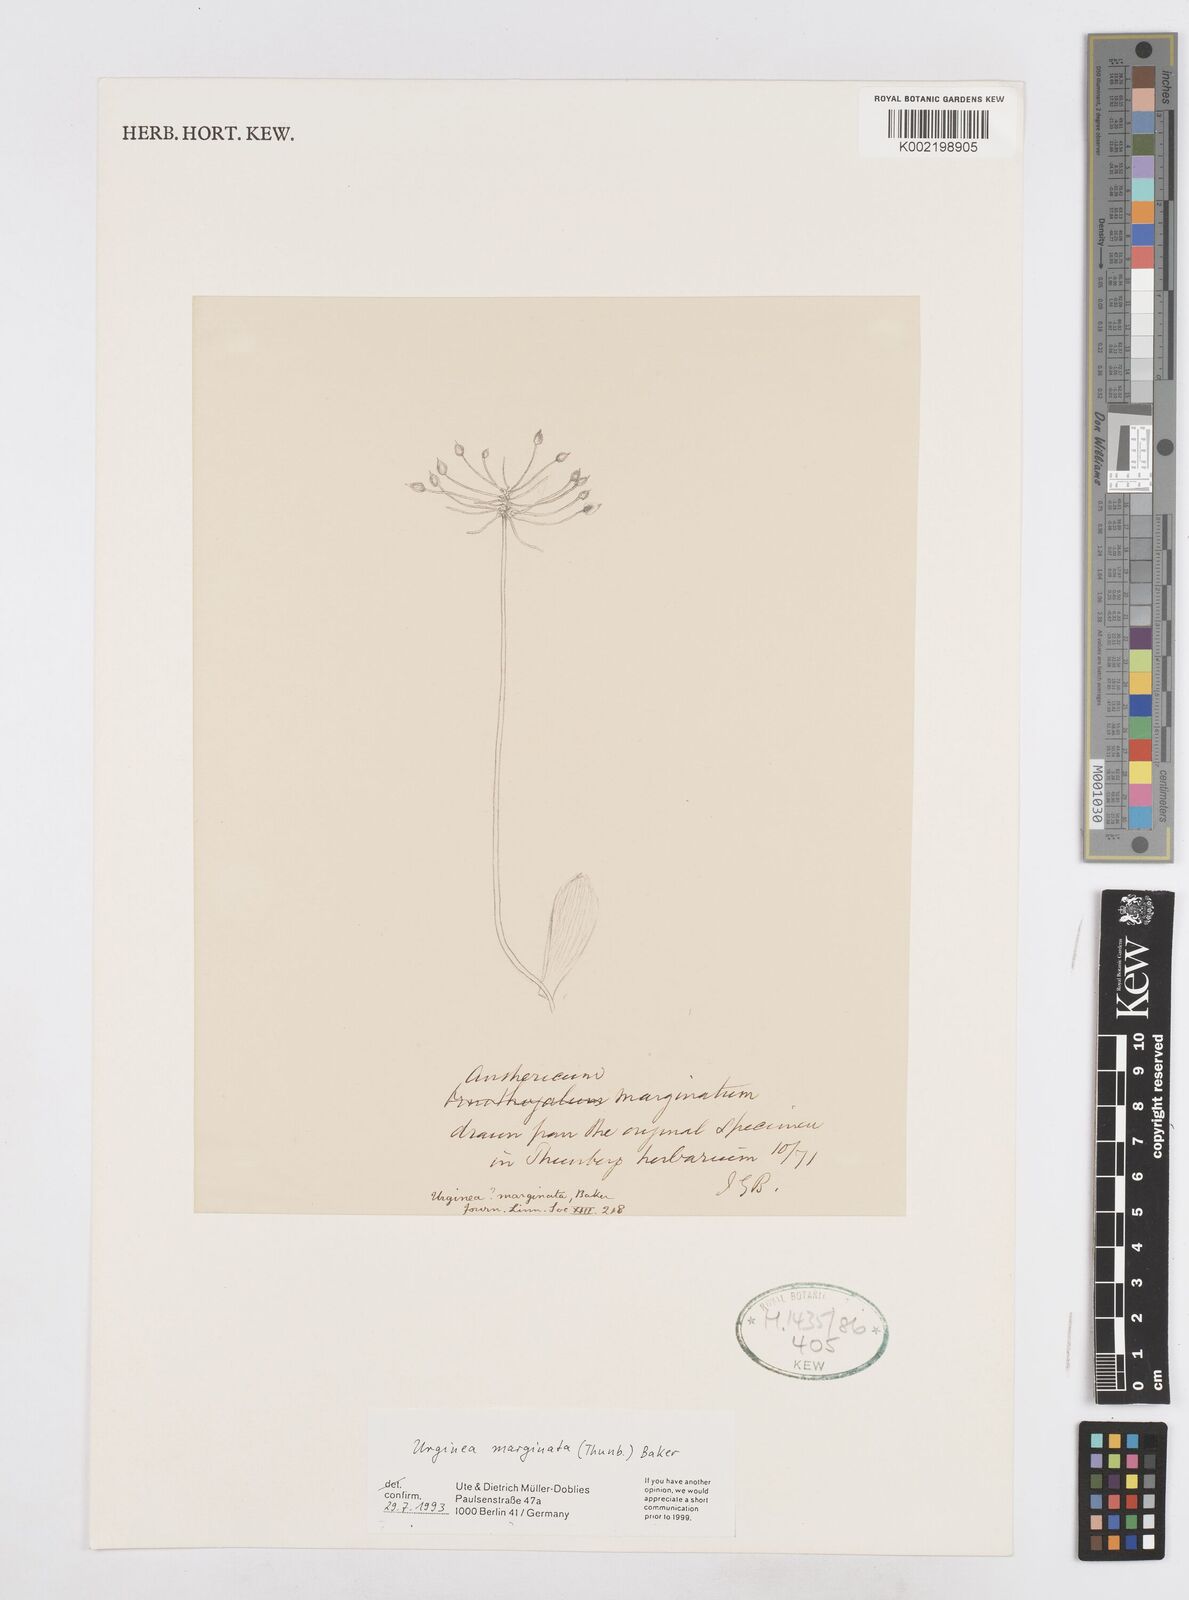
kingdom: Plantae
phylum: Tracheophyta
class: Liliopsida
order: Asparagales
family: Asparagaceae
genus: Austronea
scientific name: Austronea marginata
